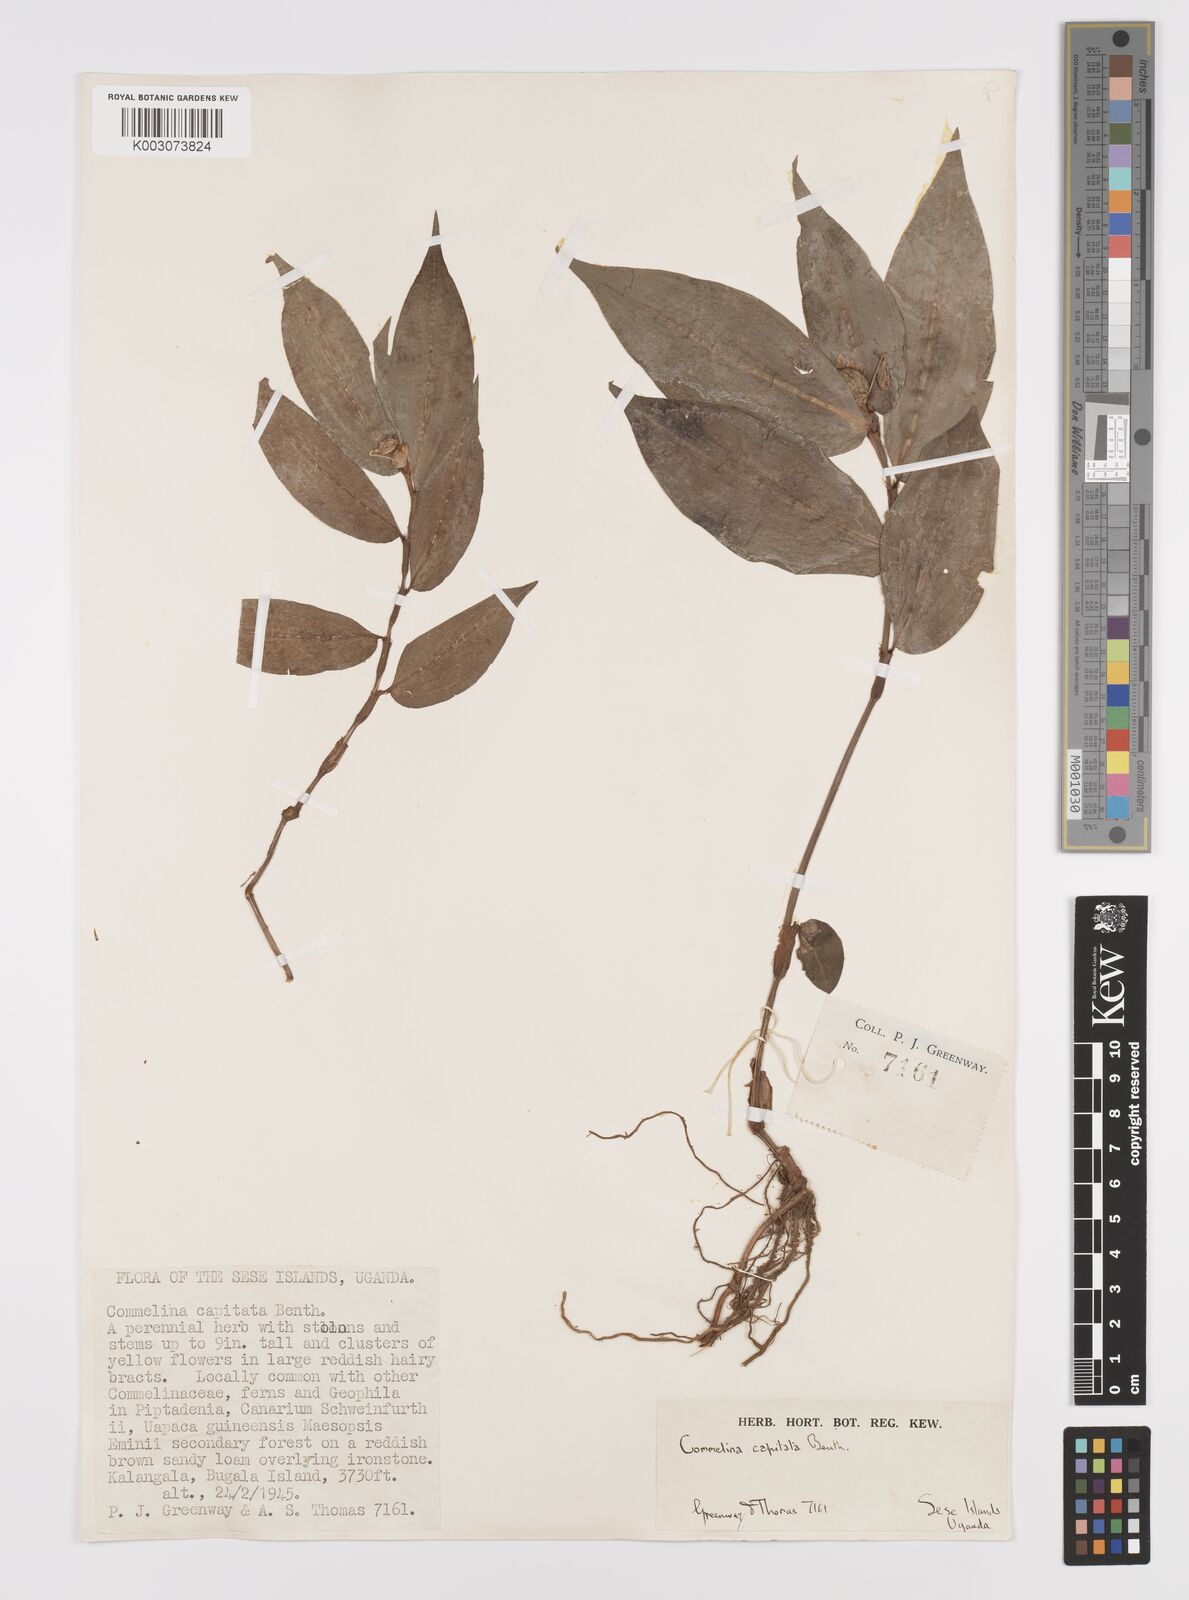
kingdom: Plantae
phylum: Tracheophyta
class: Liliopsida
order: Commelinales
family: Commelinaceae
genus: Commelina
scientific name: Commelina capitata
